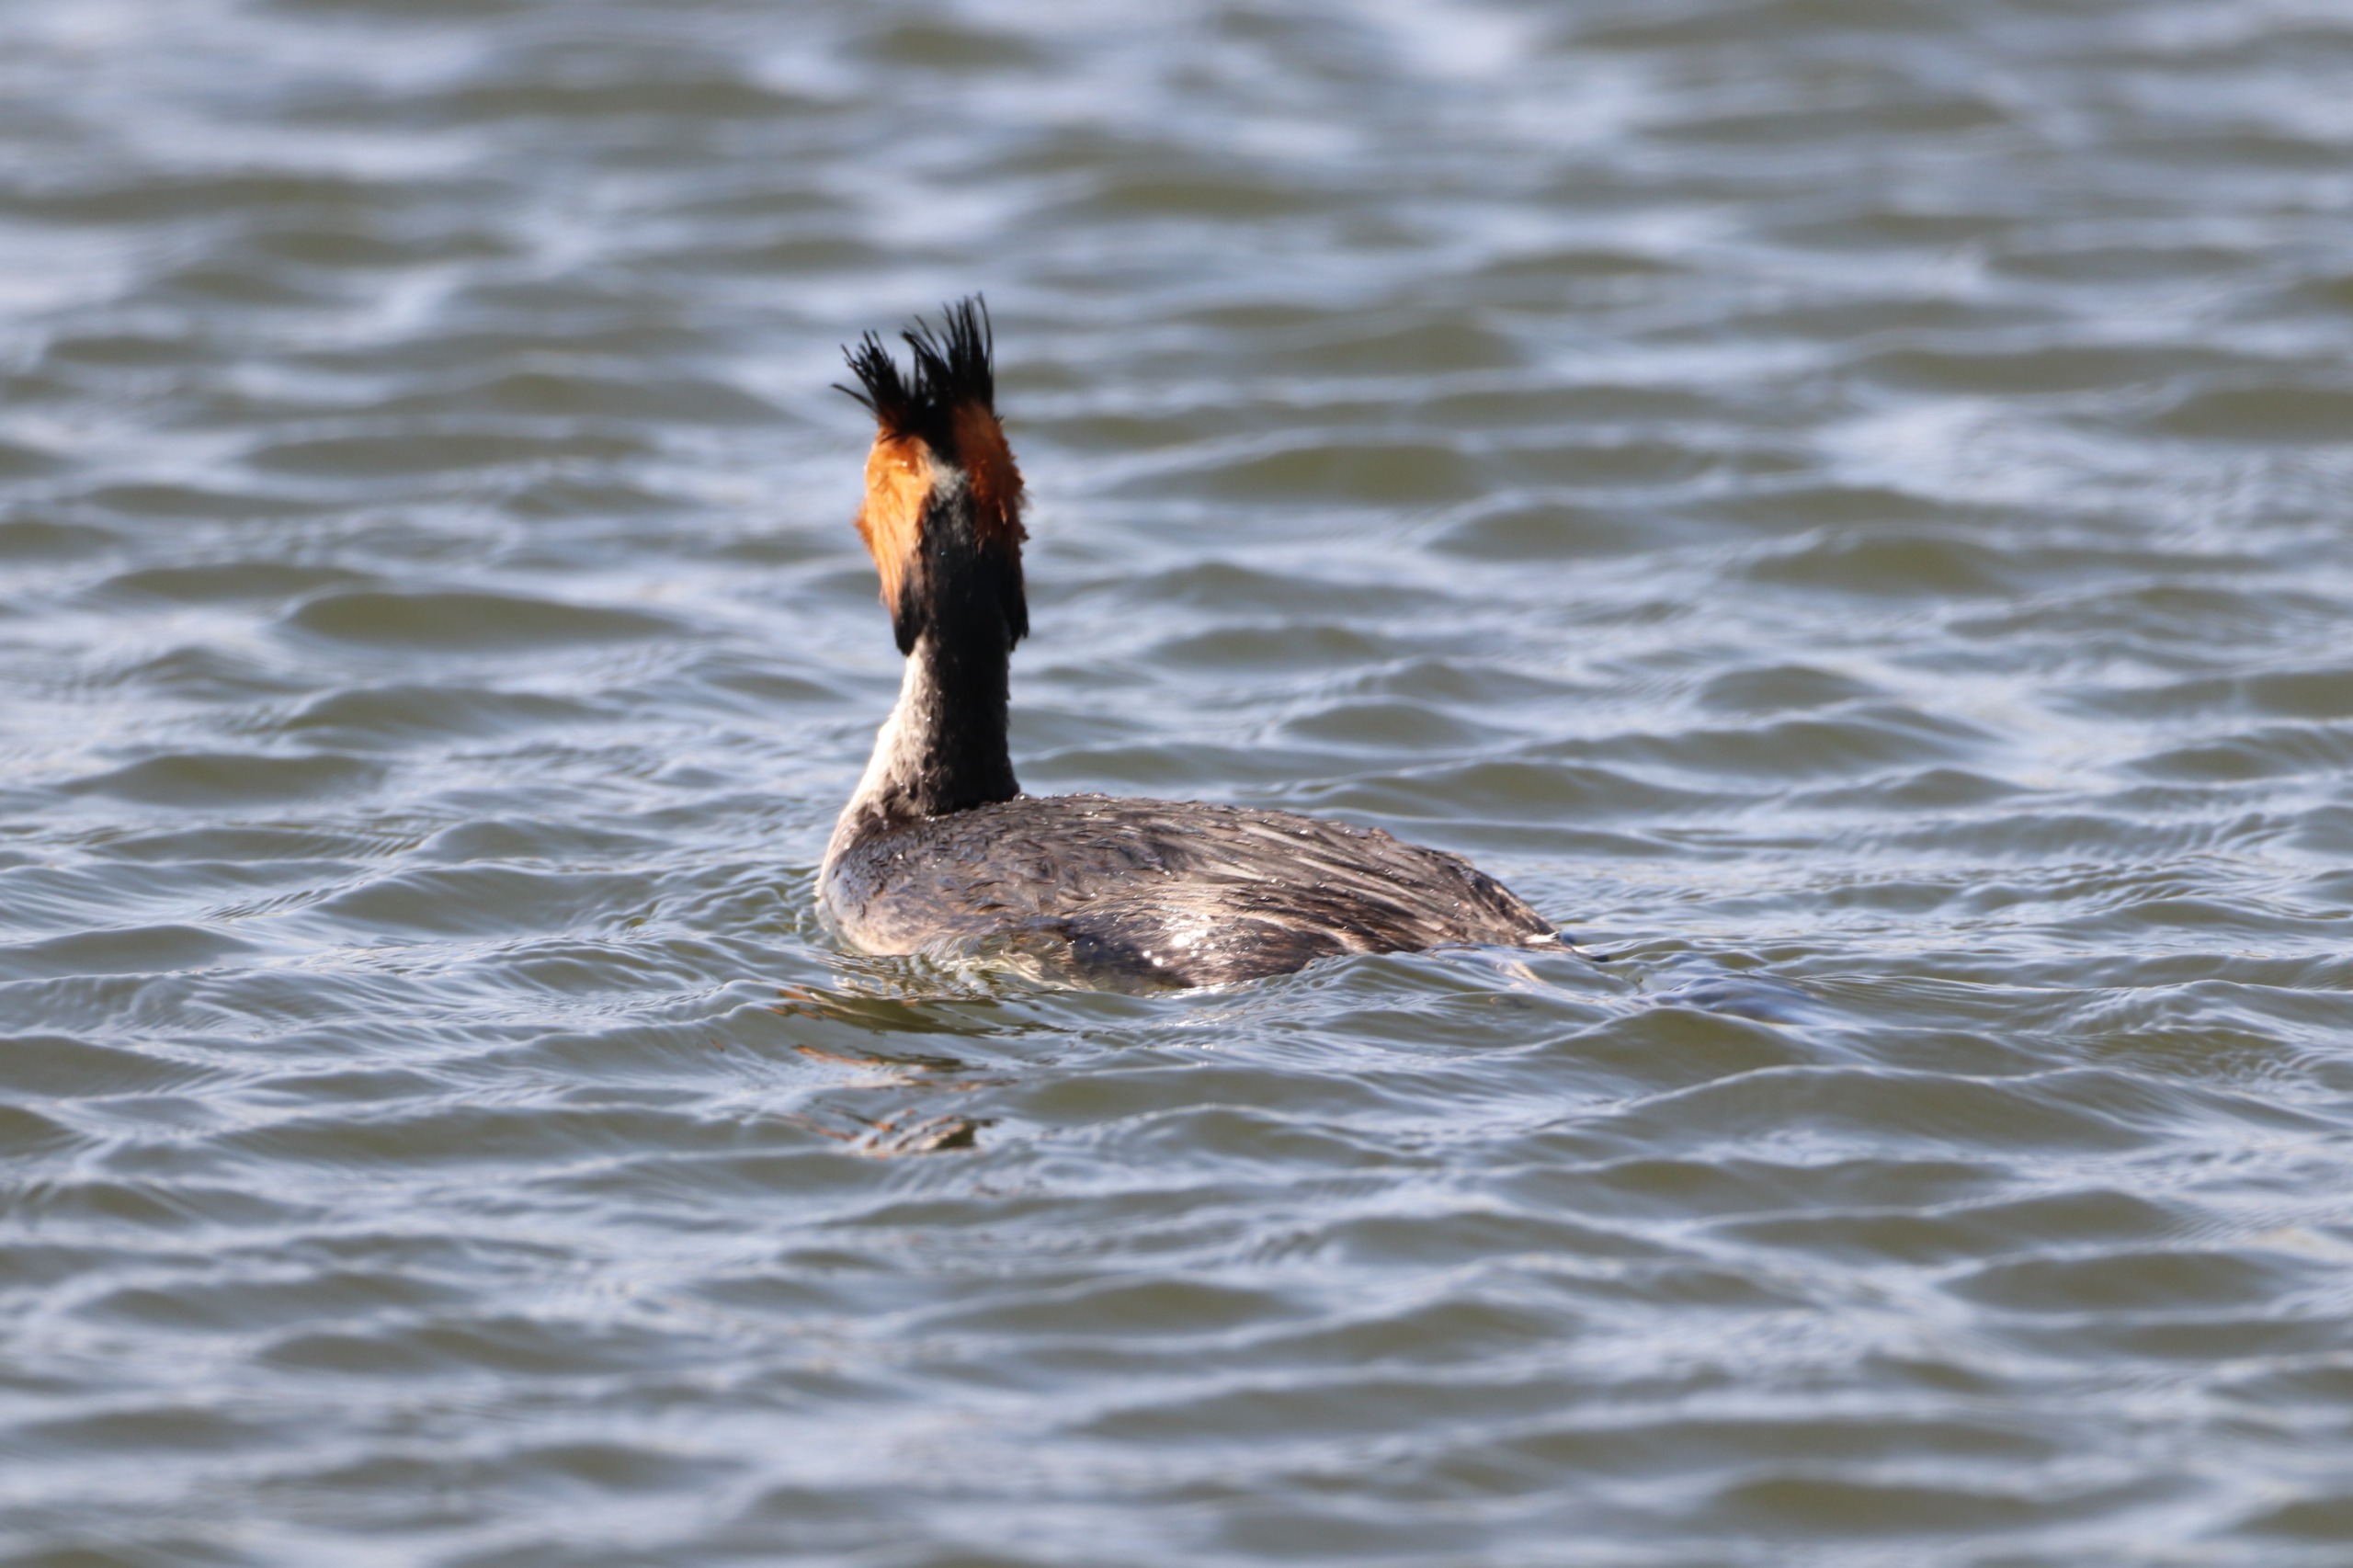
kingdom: Animalia
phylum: Chordata
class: Aves
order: Podicipediformes
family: Podicipedidae
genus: Podiceps
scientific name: Podiceps cristatus
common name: Toppet lappedykker
